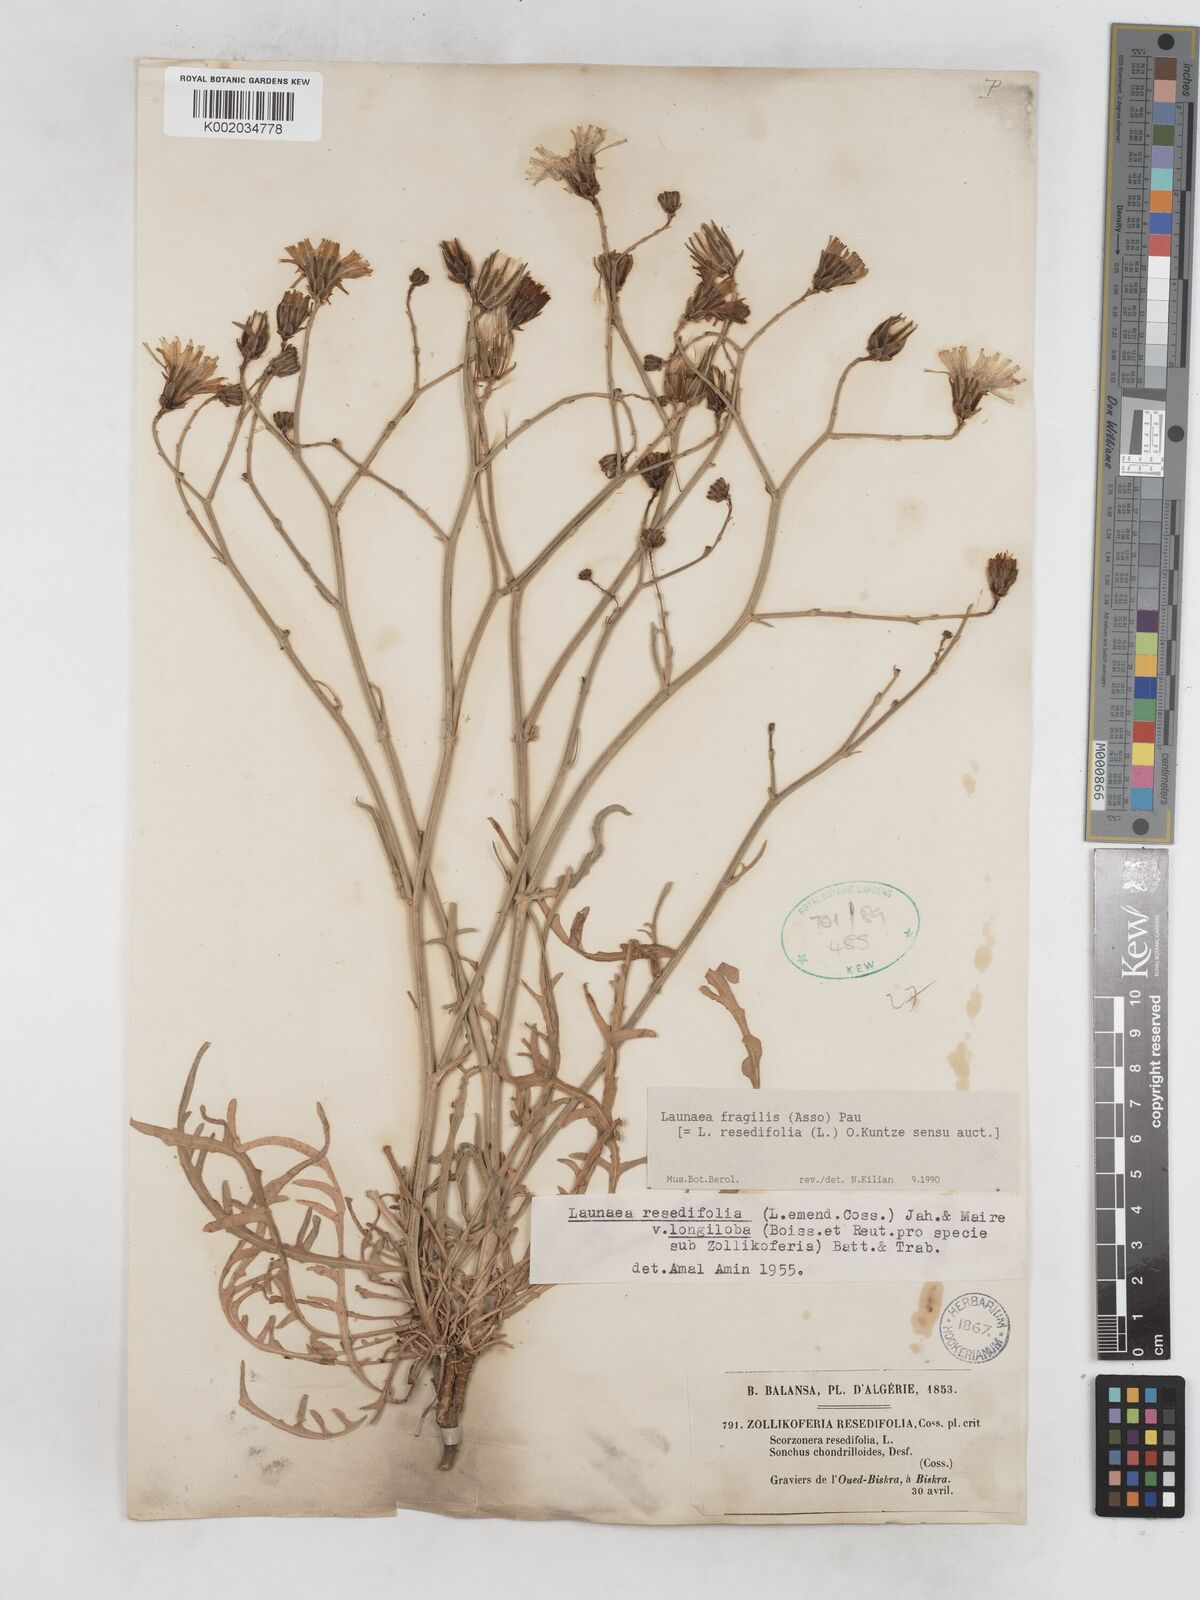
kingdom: Plantae
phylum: Tracheophyta
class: Magnoliopsida
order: Asterales
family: Asteraceae
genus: Launaea
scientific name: Launaea fragilis
